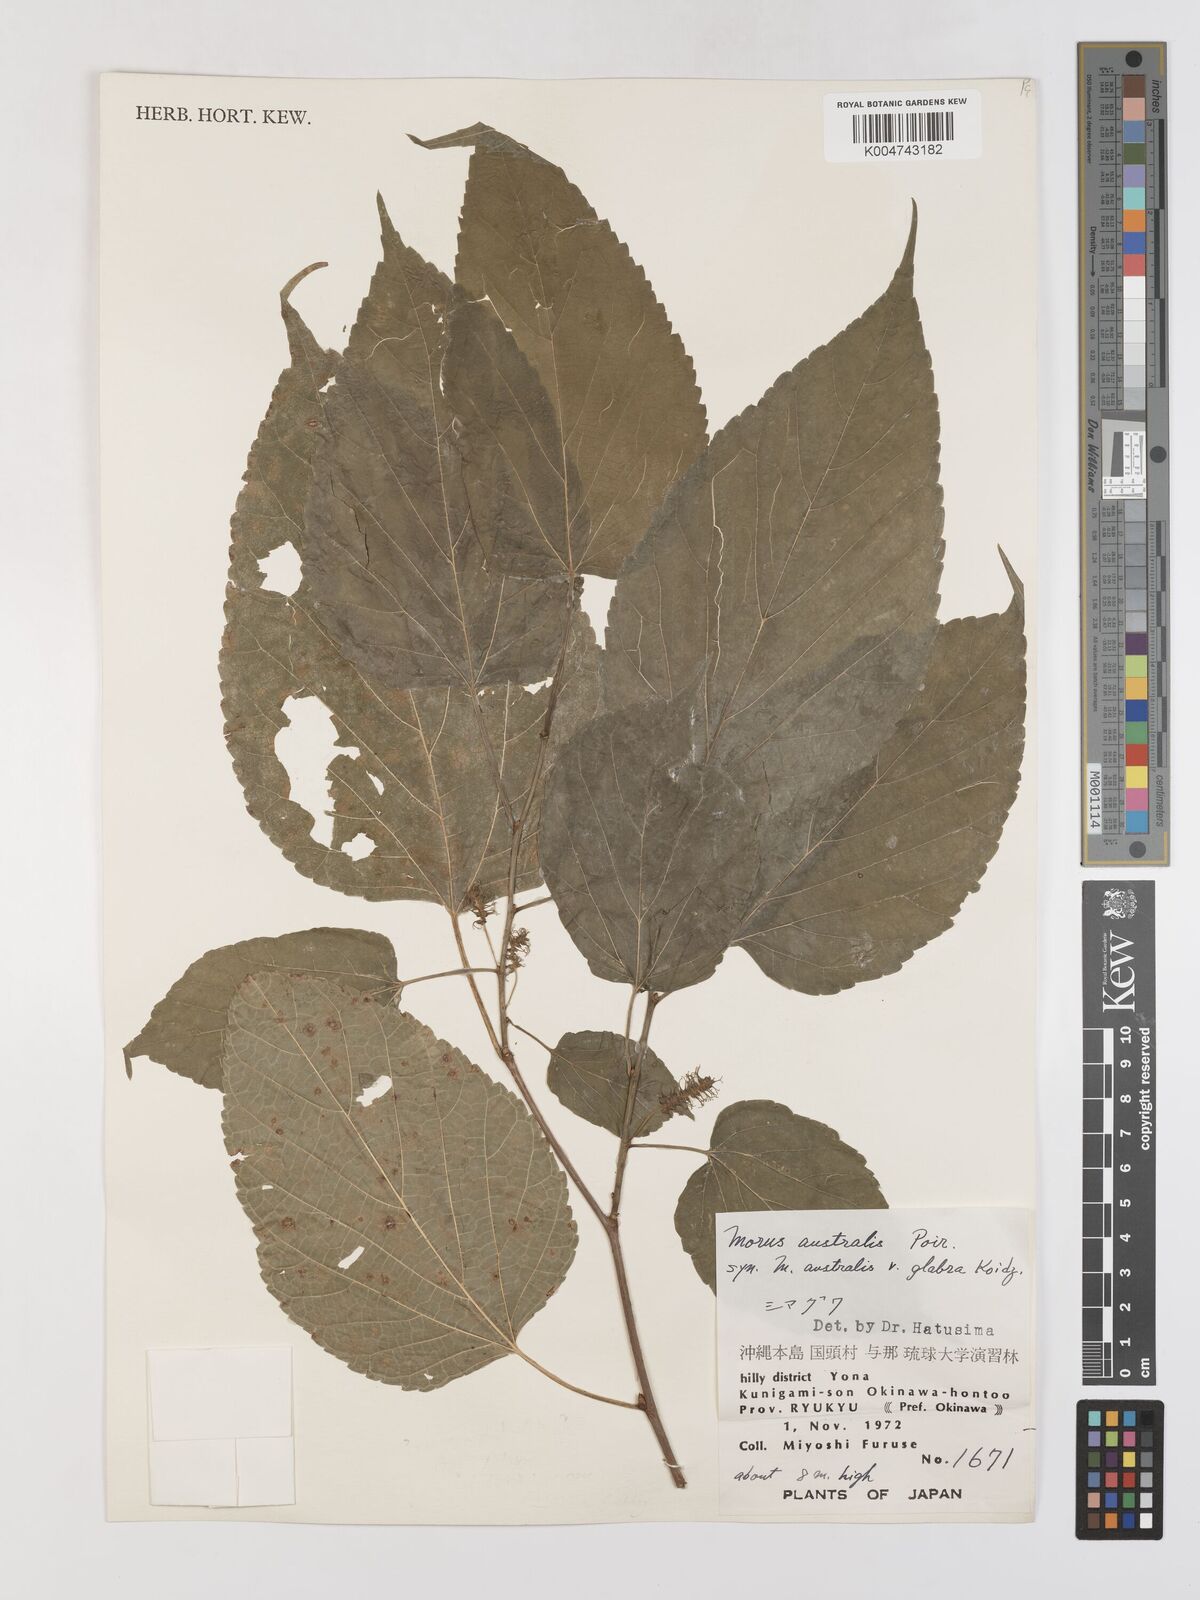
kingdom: Plantae
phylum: Tracheophyta
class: Magnoliopsida
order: Rosales
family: Moraceae
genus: Morus
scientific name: Morus indica
